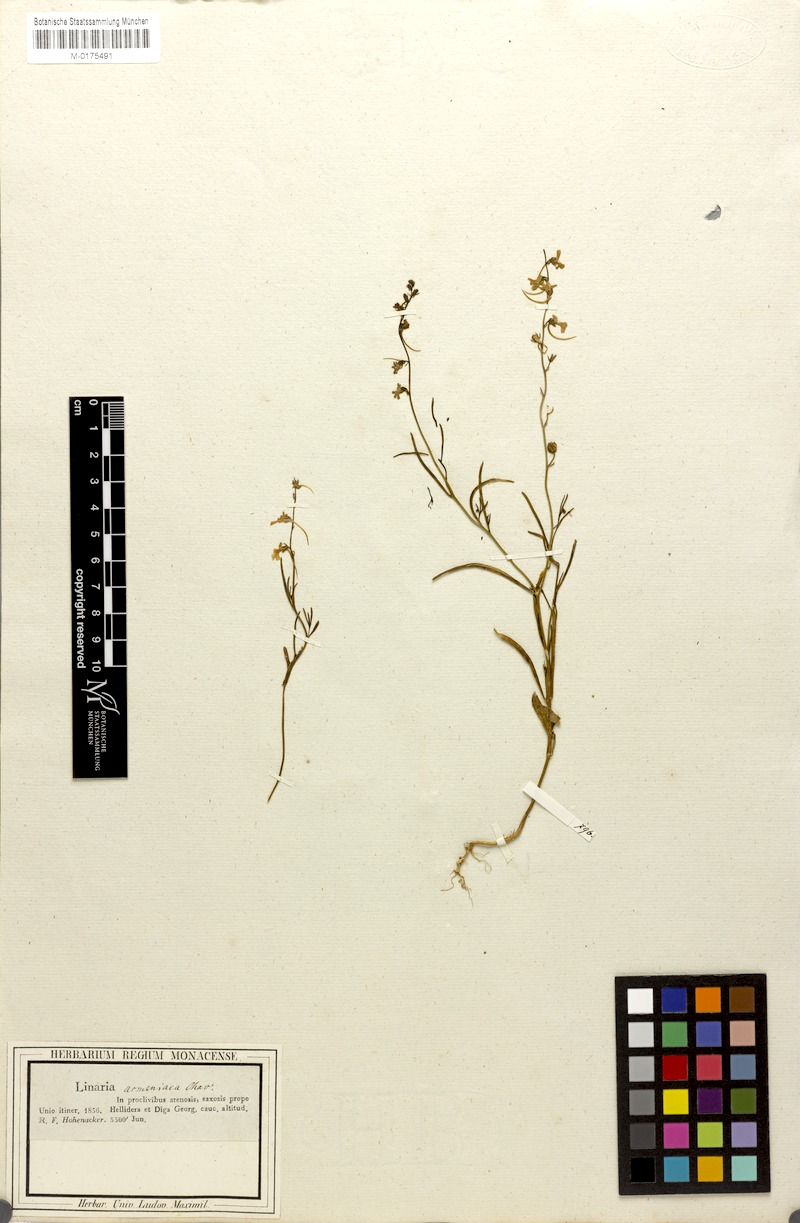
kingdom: Plantae
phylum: Tracheophyta
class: Magnoliopsida
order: Lamiales
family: Plantaginaceae
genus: Linaria
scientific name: Linaria armeniaca
